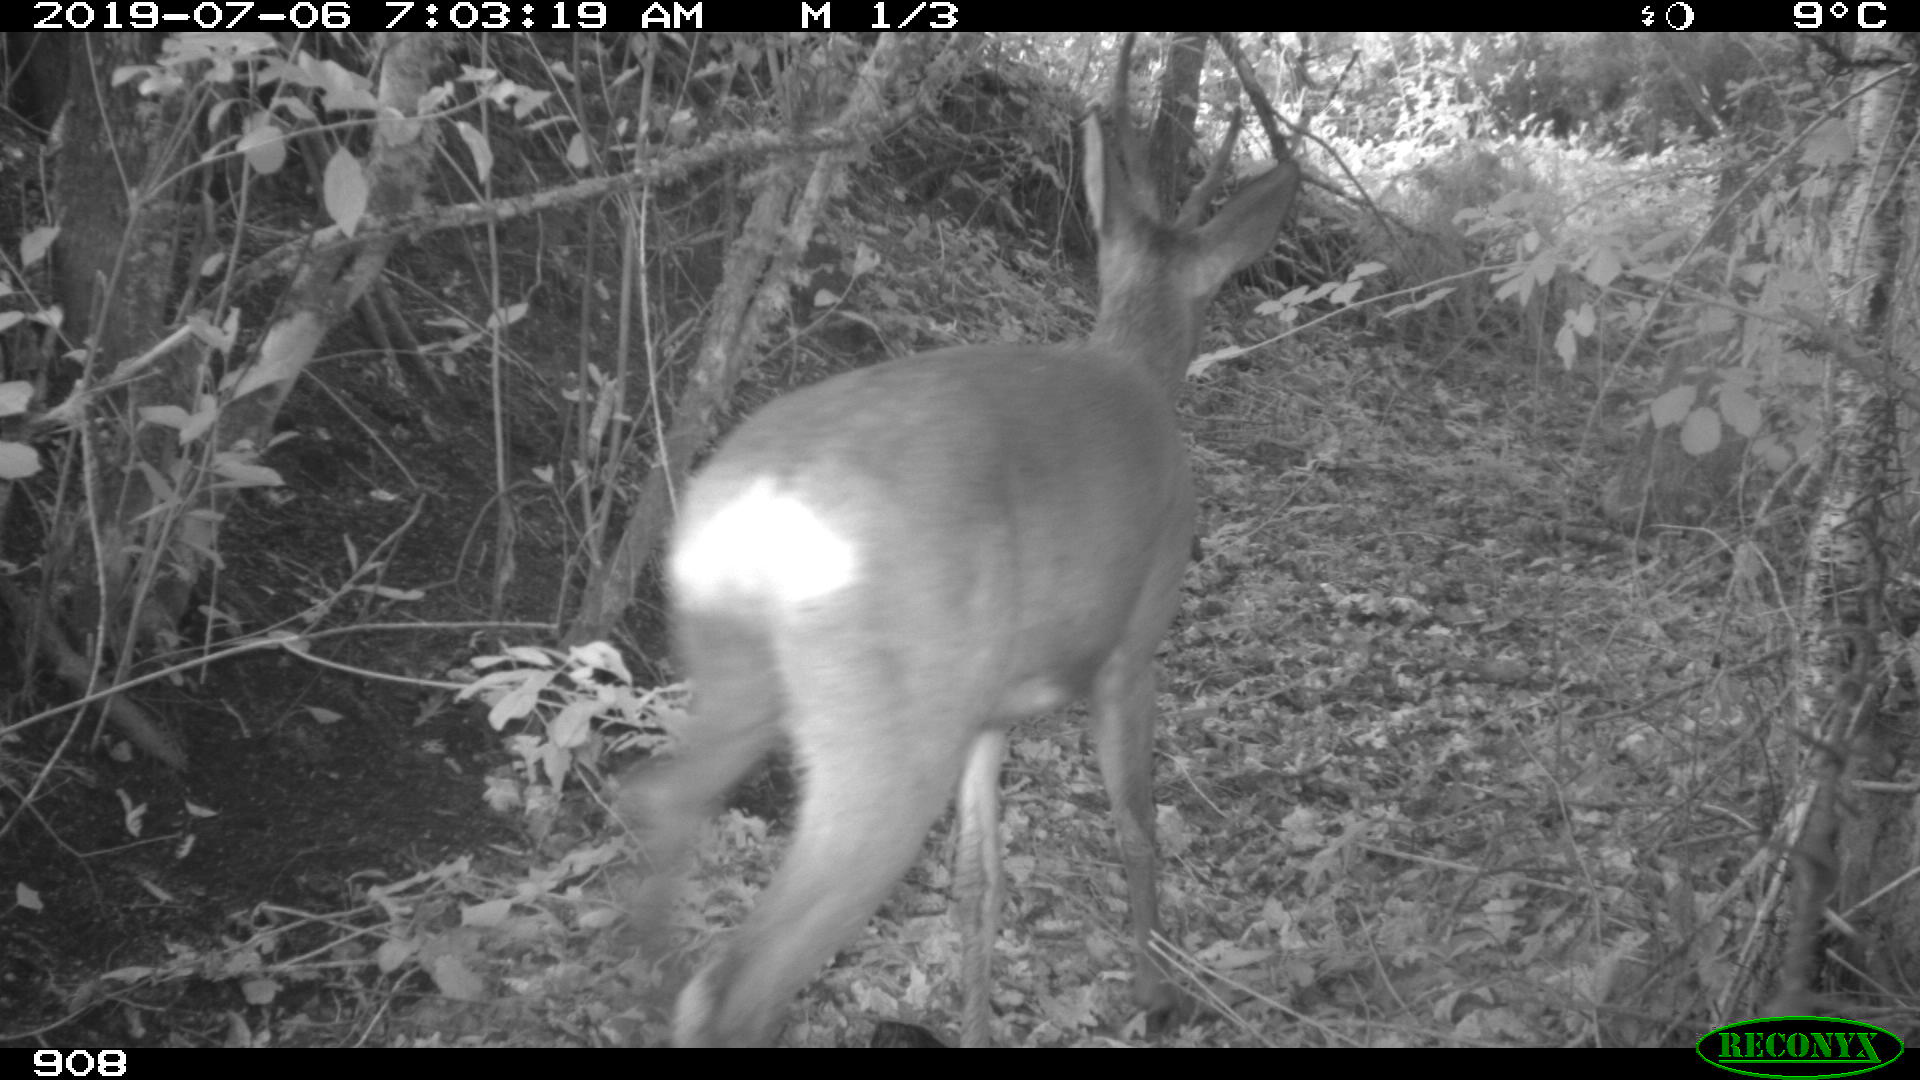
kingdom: Animalia
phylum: Chordata
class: Mammalia
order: Artiodactyla
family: Cervidae
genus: Capreolus
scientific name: Capreolus capreolus
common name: Western roe deer
